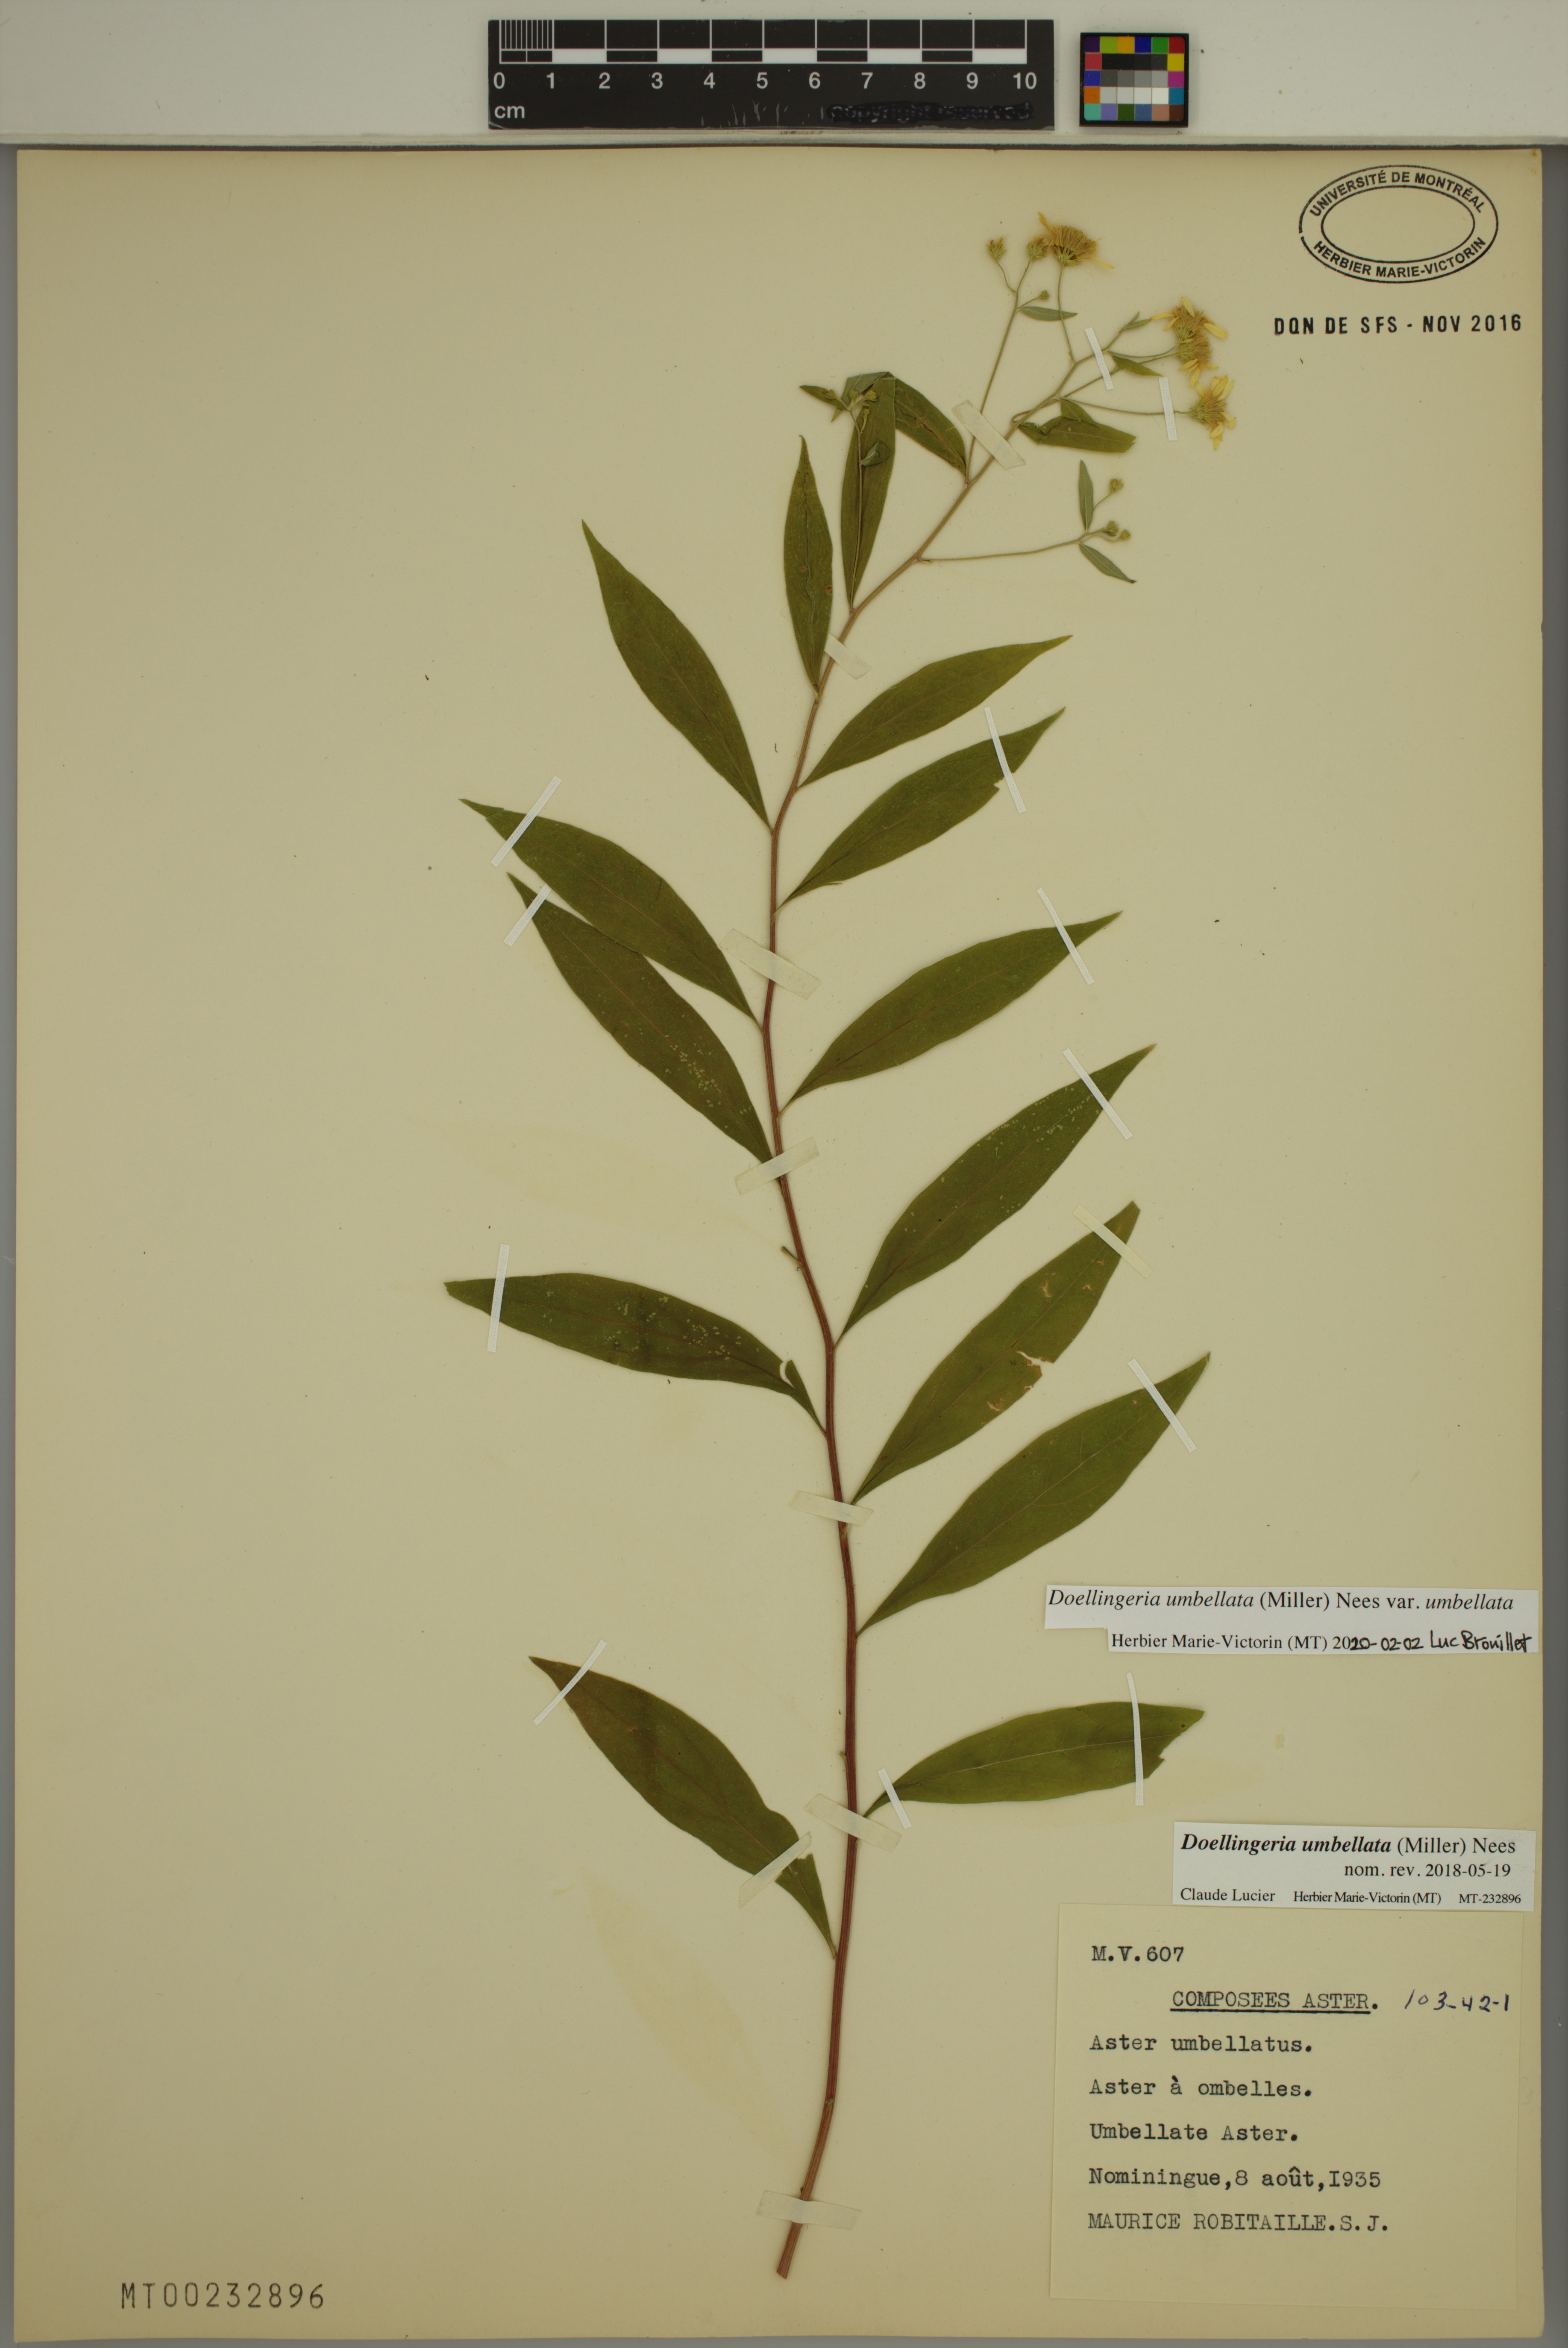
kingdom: Plantae
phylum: Tracheophyta
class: Magnoliopsida
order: Asterales
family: Asteraceae
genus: Doellingeria
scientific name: Doellingeria umbellata
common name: Flat-top white aster
